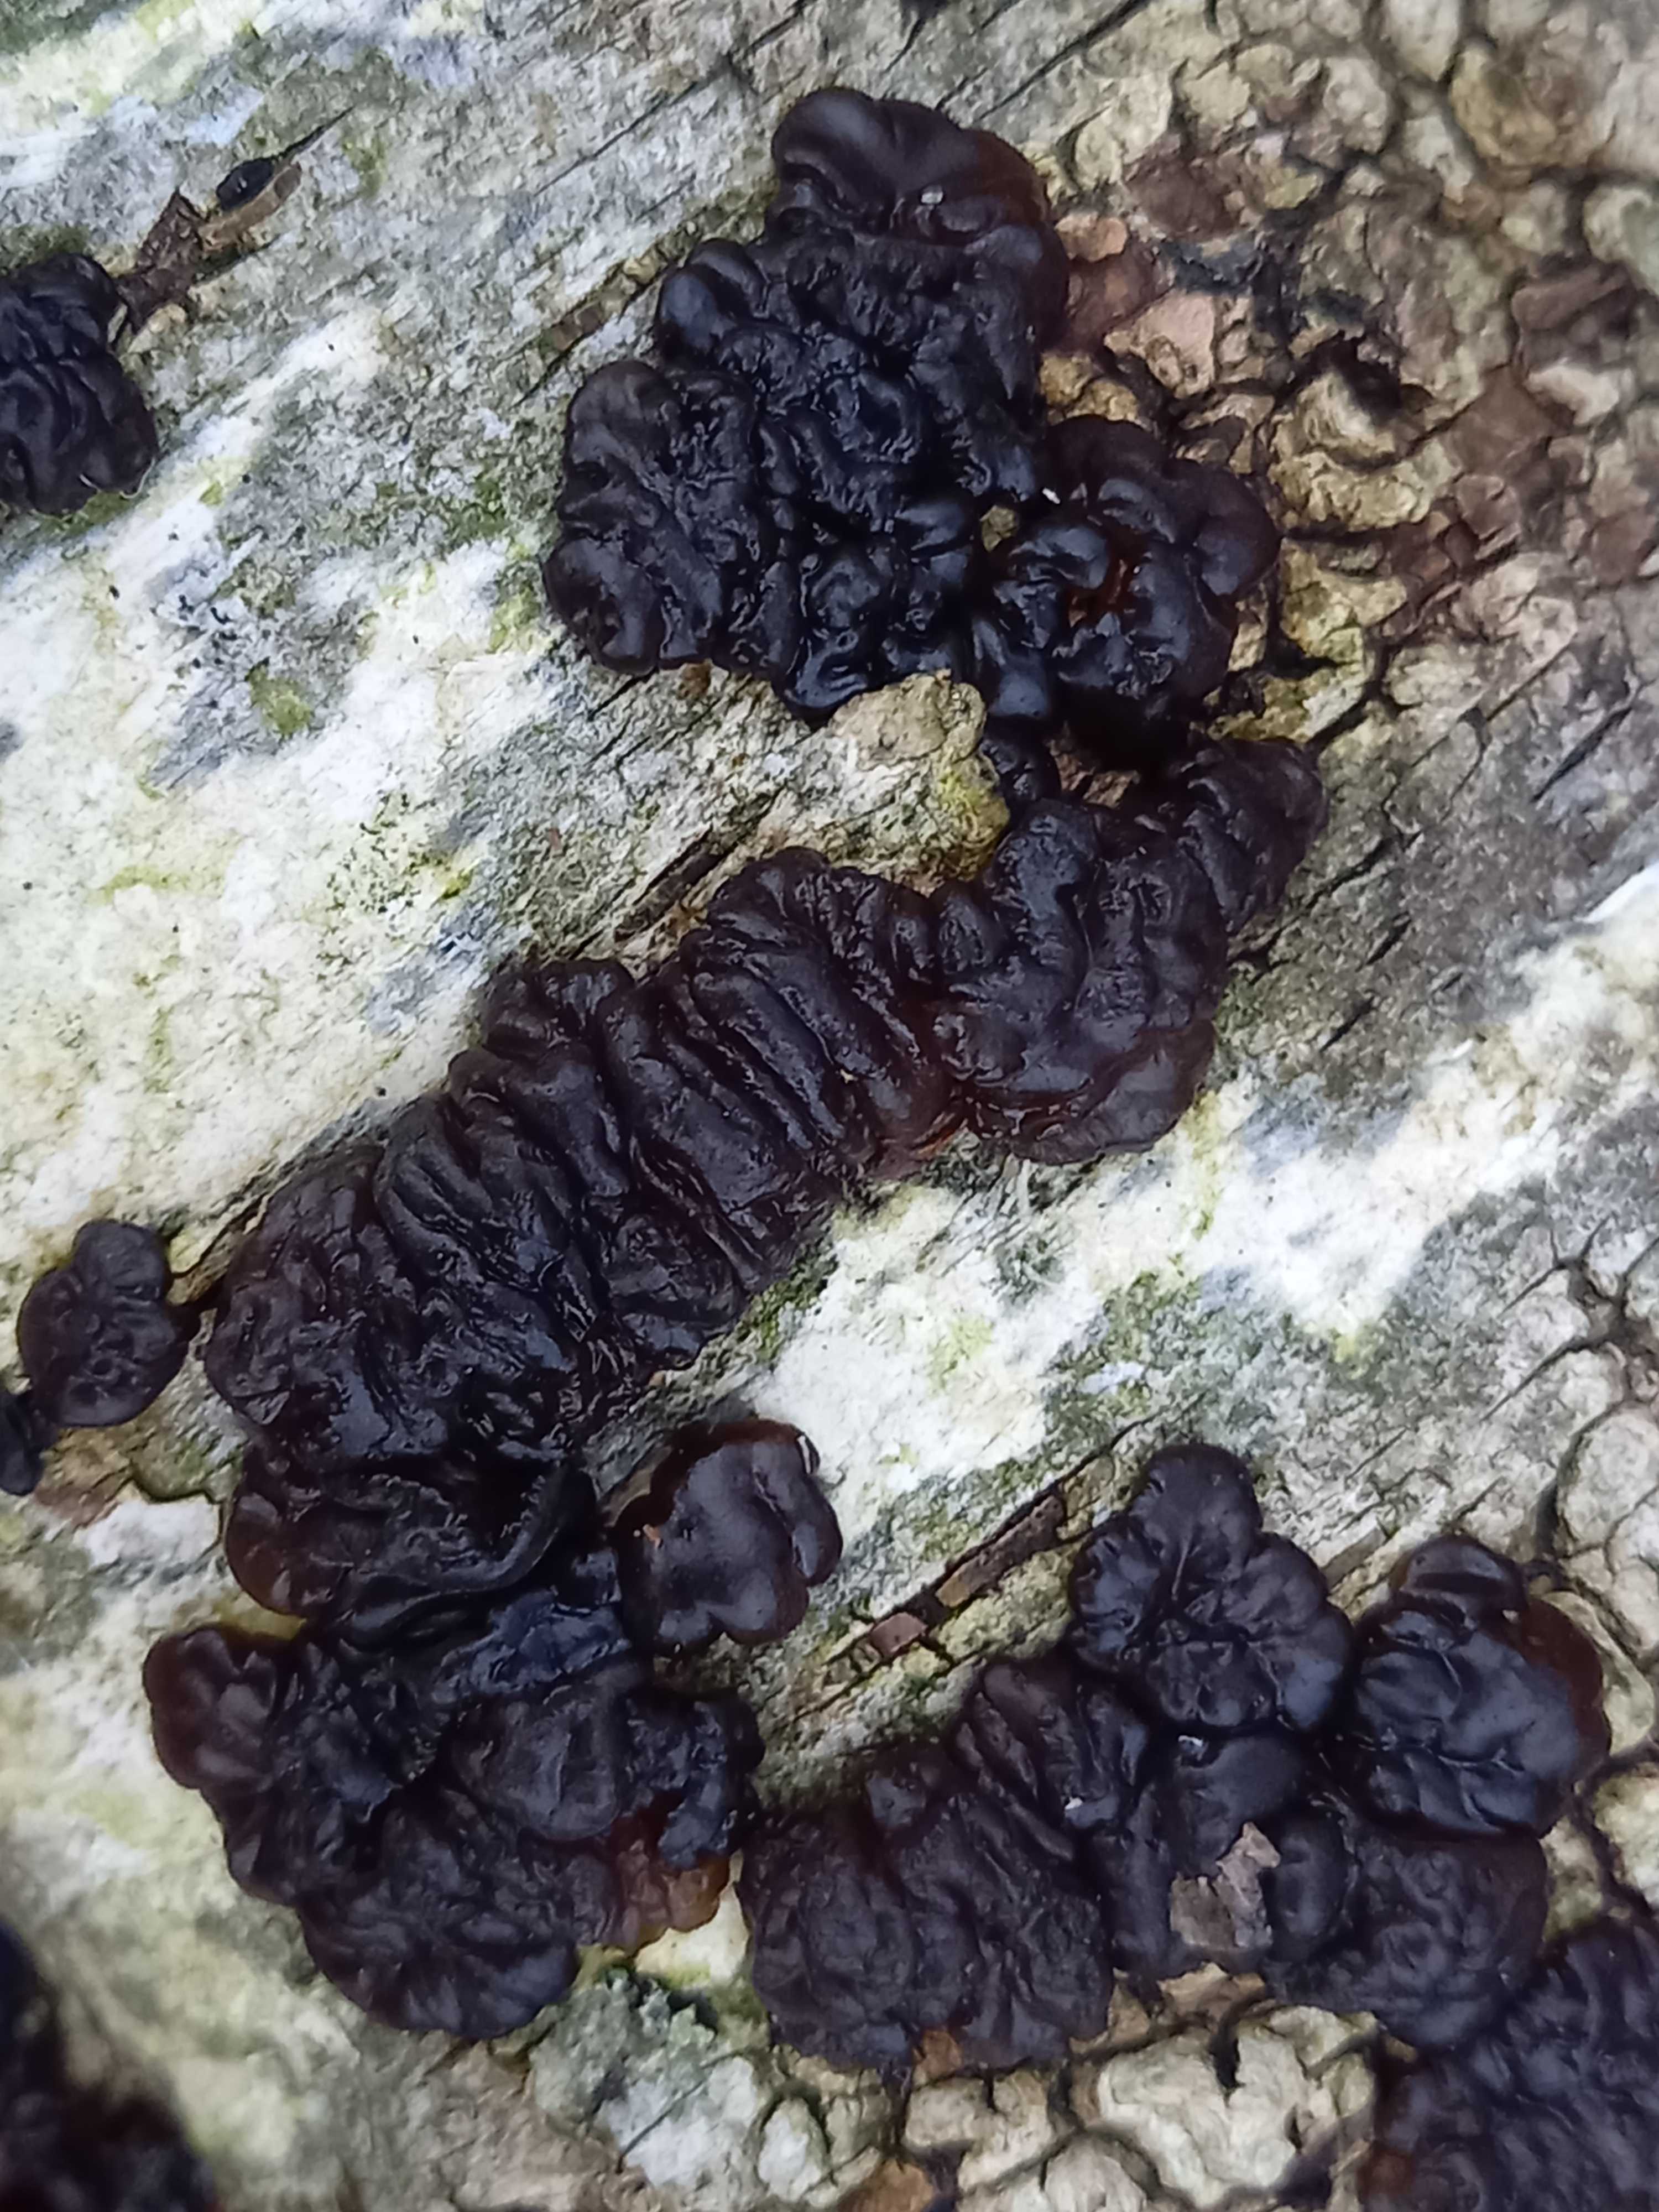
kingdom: Fungi
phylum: Basidiomycota
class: Agaricomycetes
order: Auriculariales
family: Auriculariaceae
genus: Exidia
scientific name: Exidia nigricans
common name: almindelig bævretop
